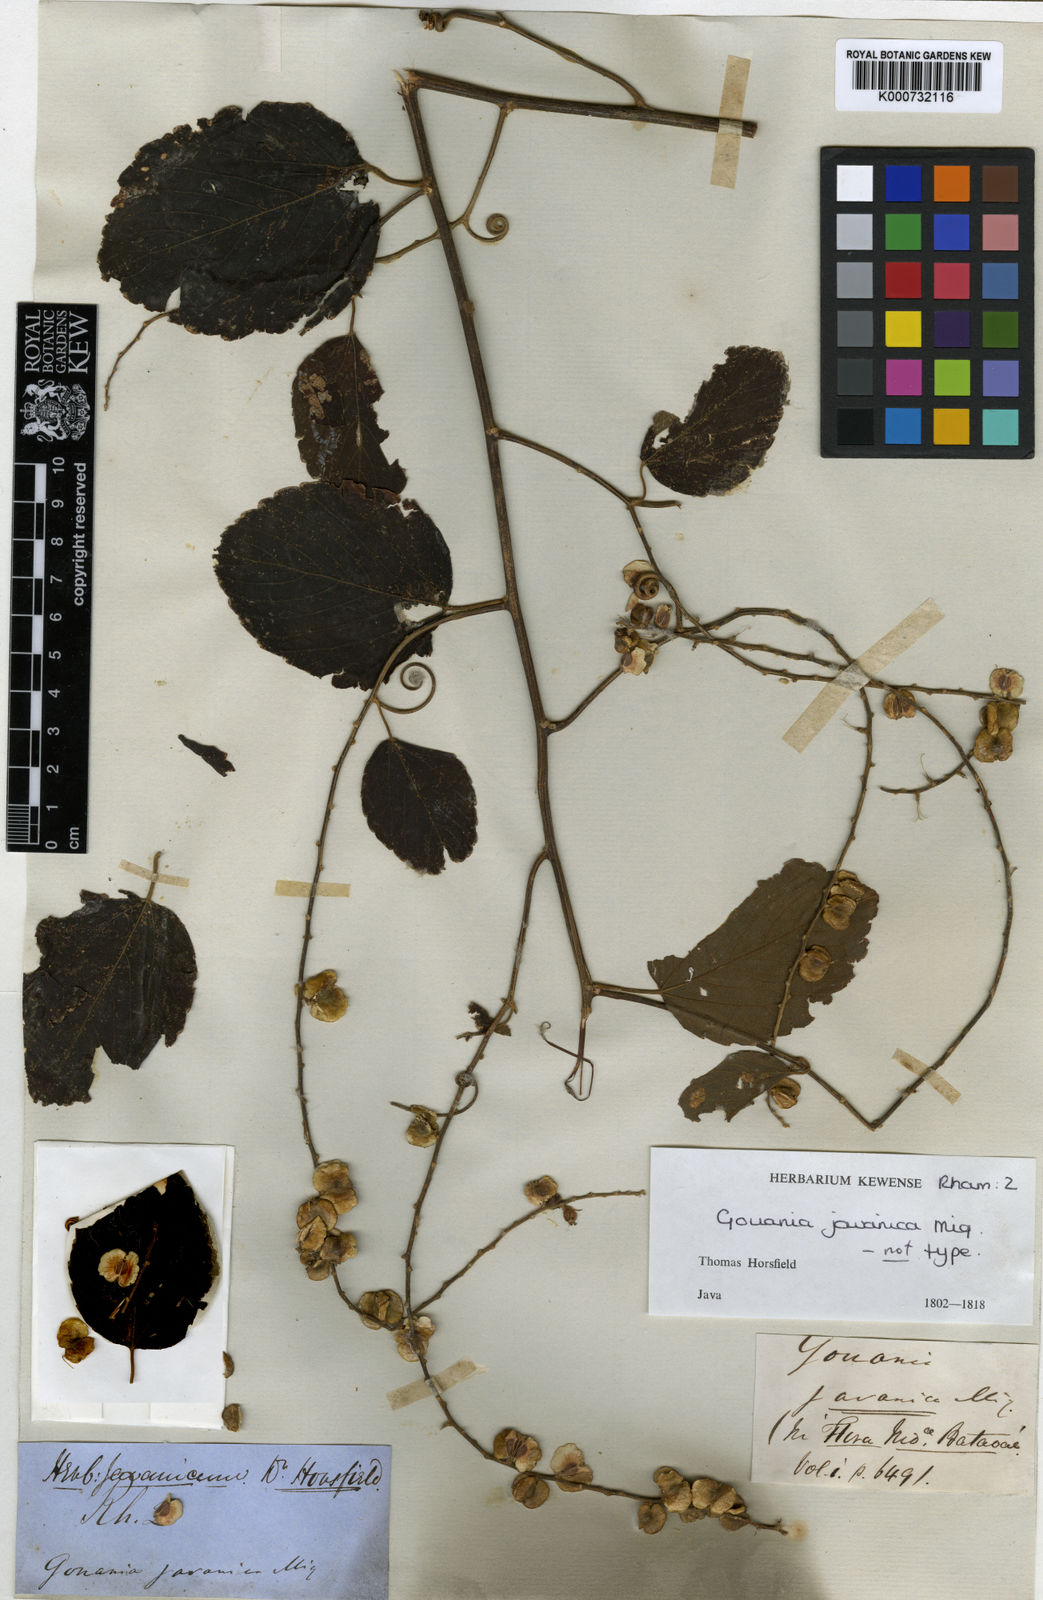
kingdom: Plantae
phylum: Tracheophyta
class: Magnoliopsida
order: Rosales
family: Rhamnaceae
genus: Gouania
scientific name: Gouania obtusifolia
